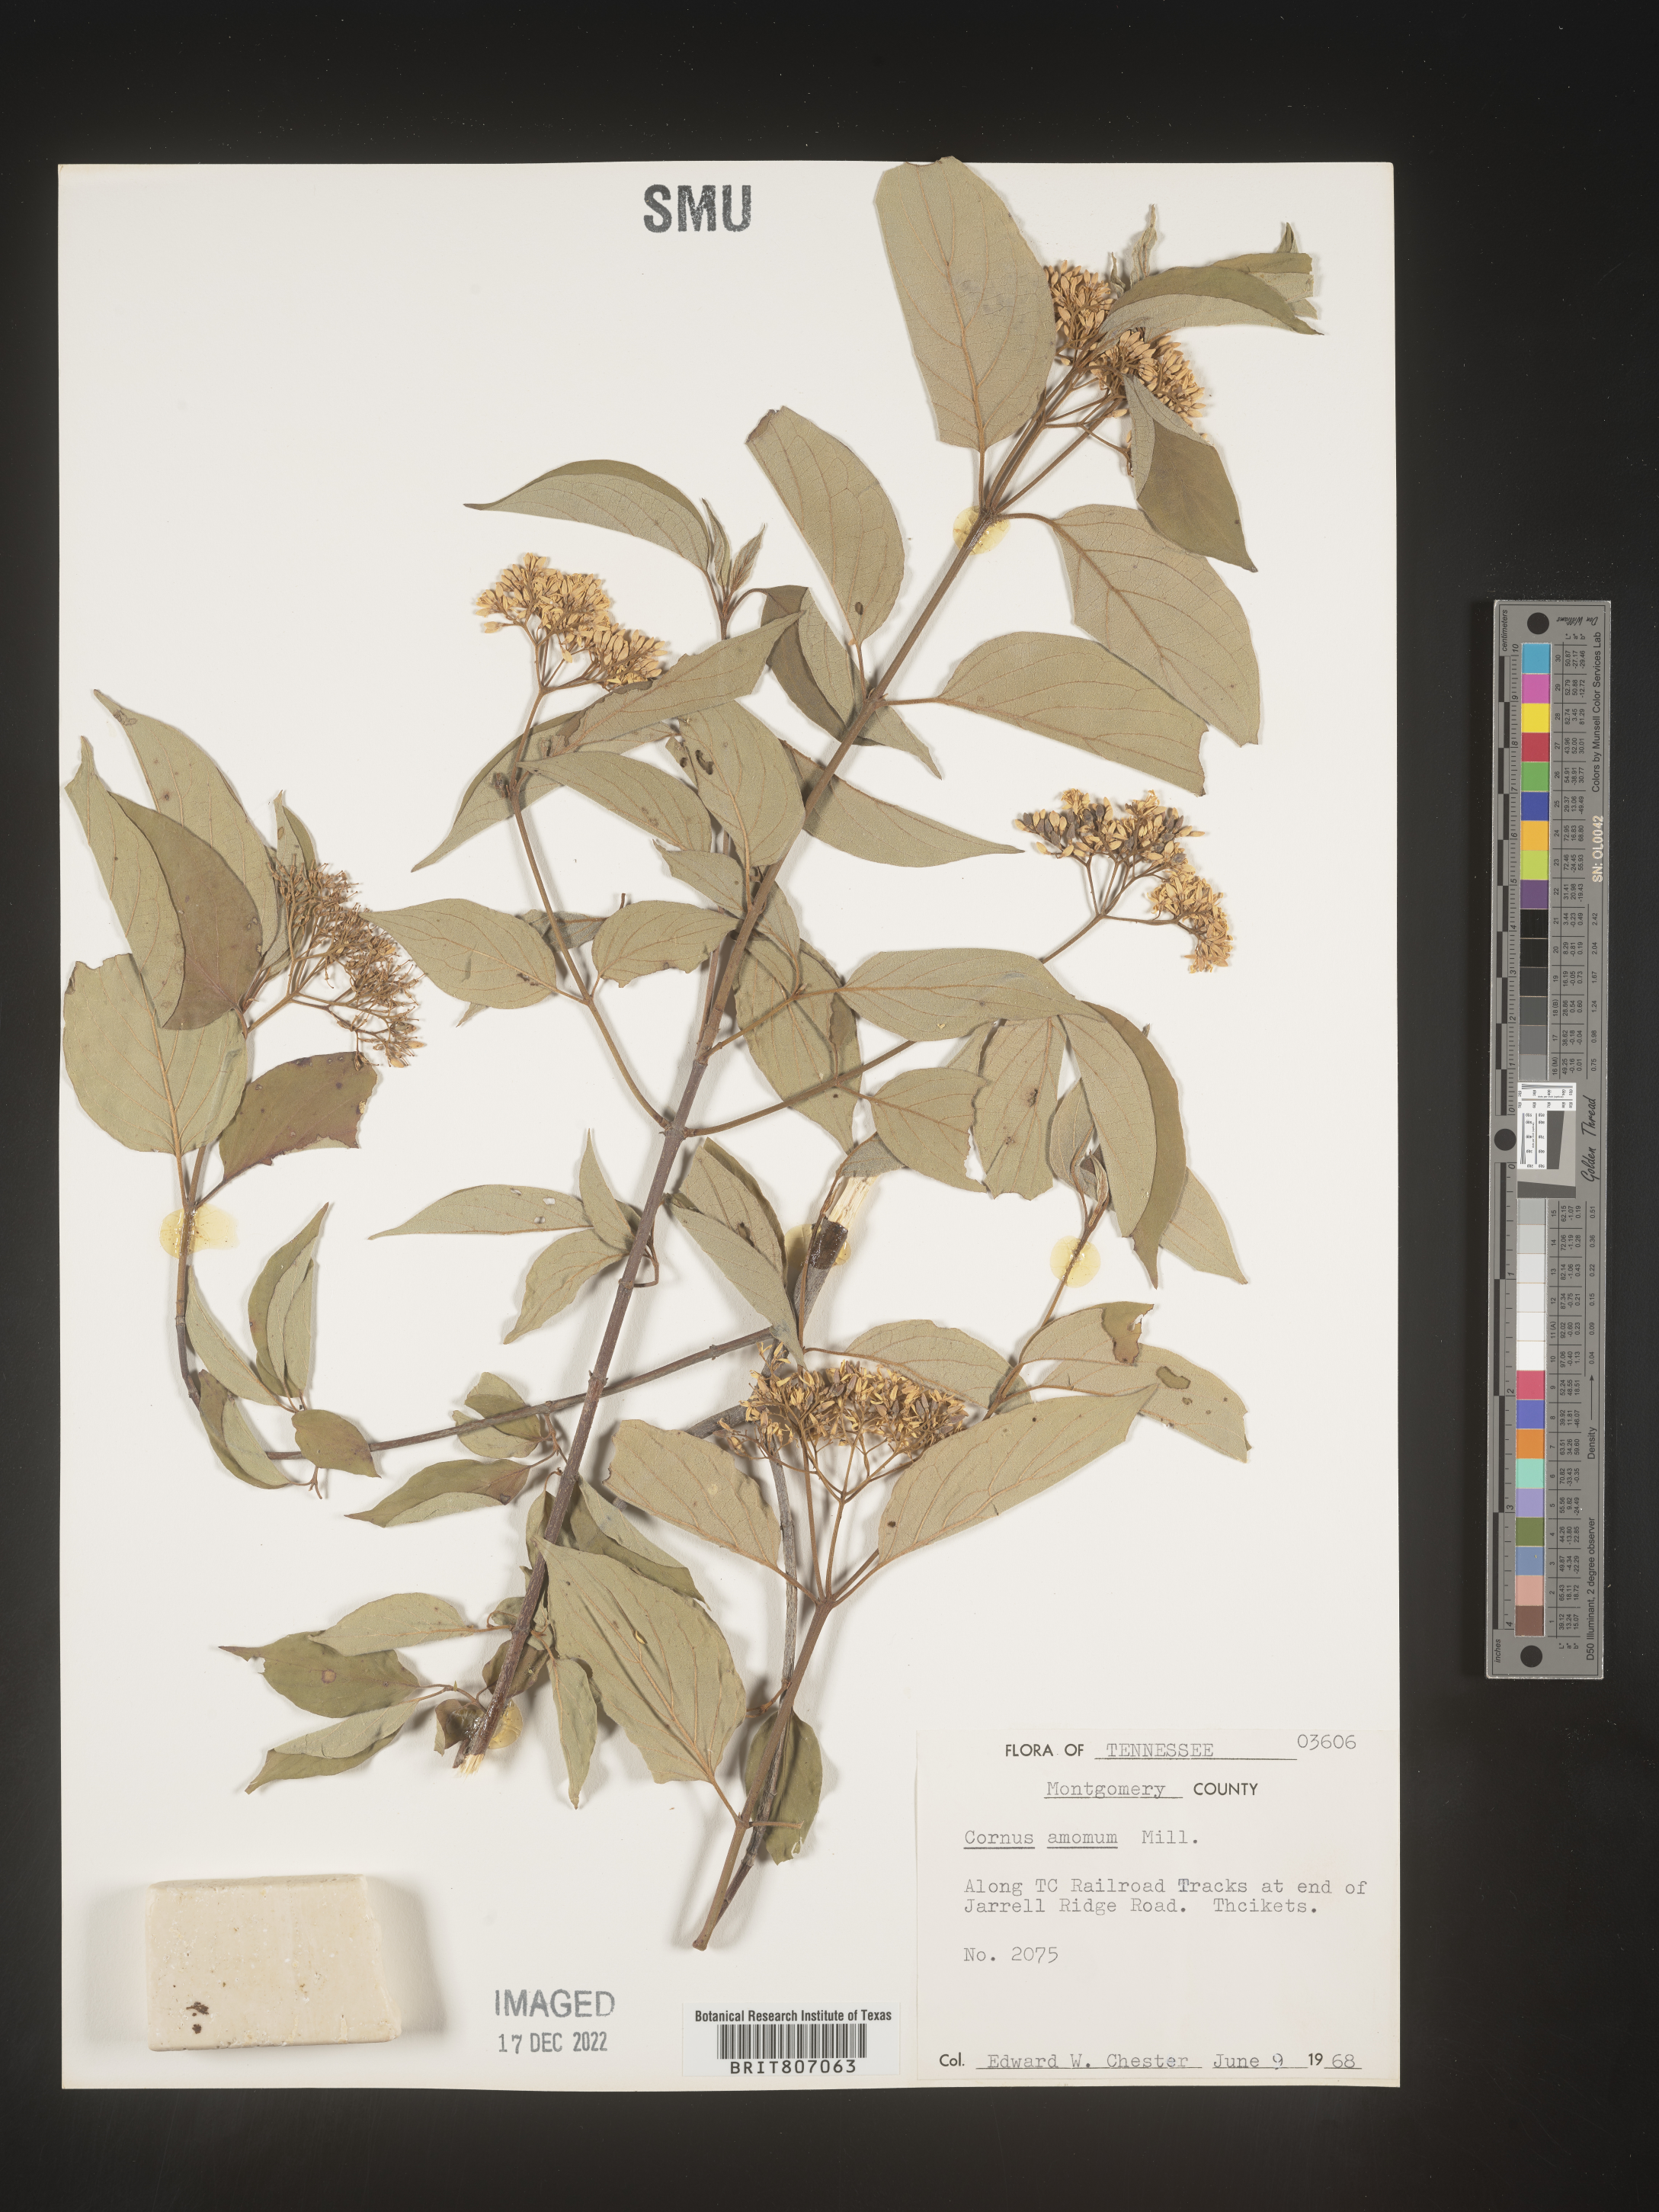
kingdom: Plantae
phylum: Tracheophyta
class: Magnoliopsida
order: Cornales
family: Cornaceae
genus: Cornus
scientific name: Cornus amomum
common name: Silky dogwood
